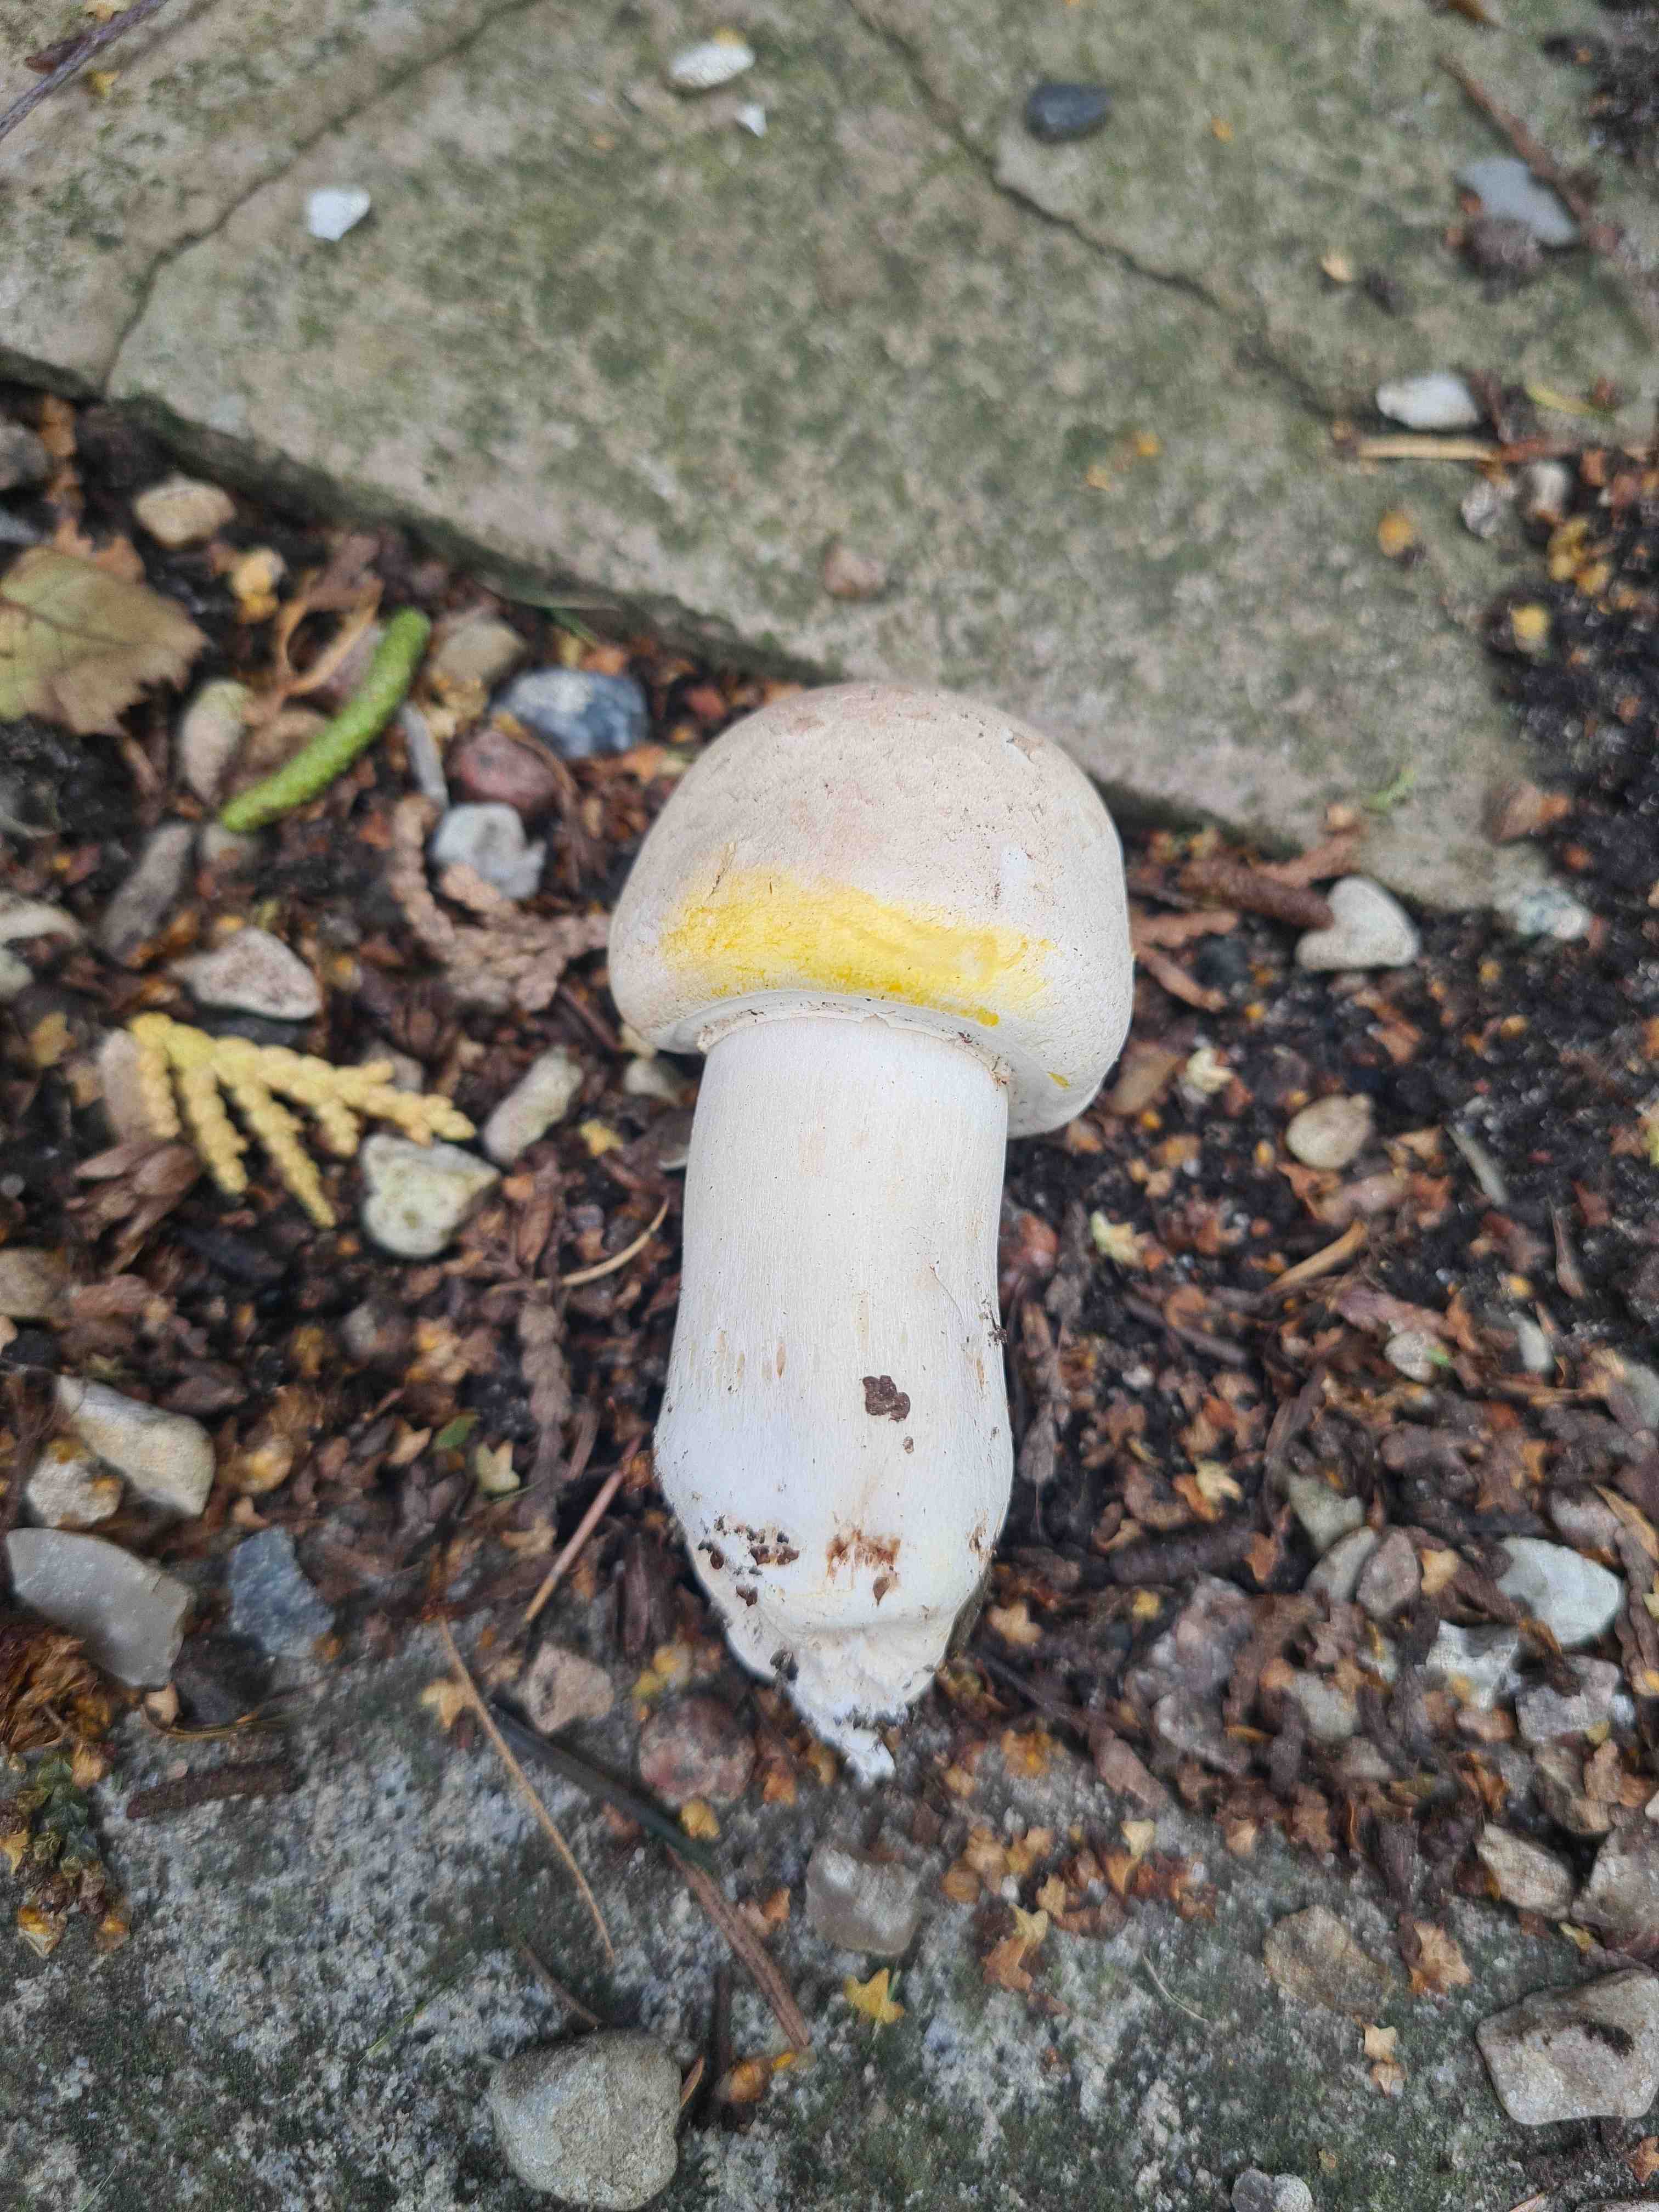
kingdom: Fungi
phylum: Basidiomycota
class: Agaricomycetes
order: Agaricales
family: Agaricaceae
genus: Agaricus
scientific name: Agaricus xanthodermus
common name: karbol-champignon
